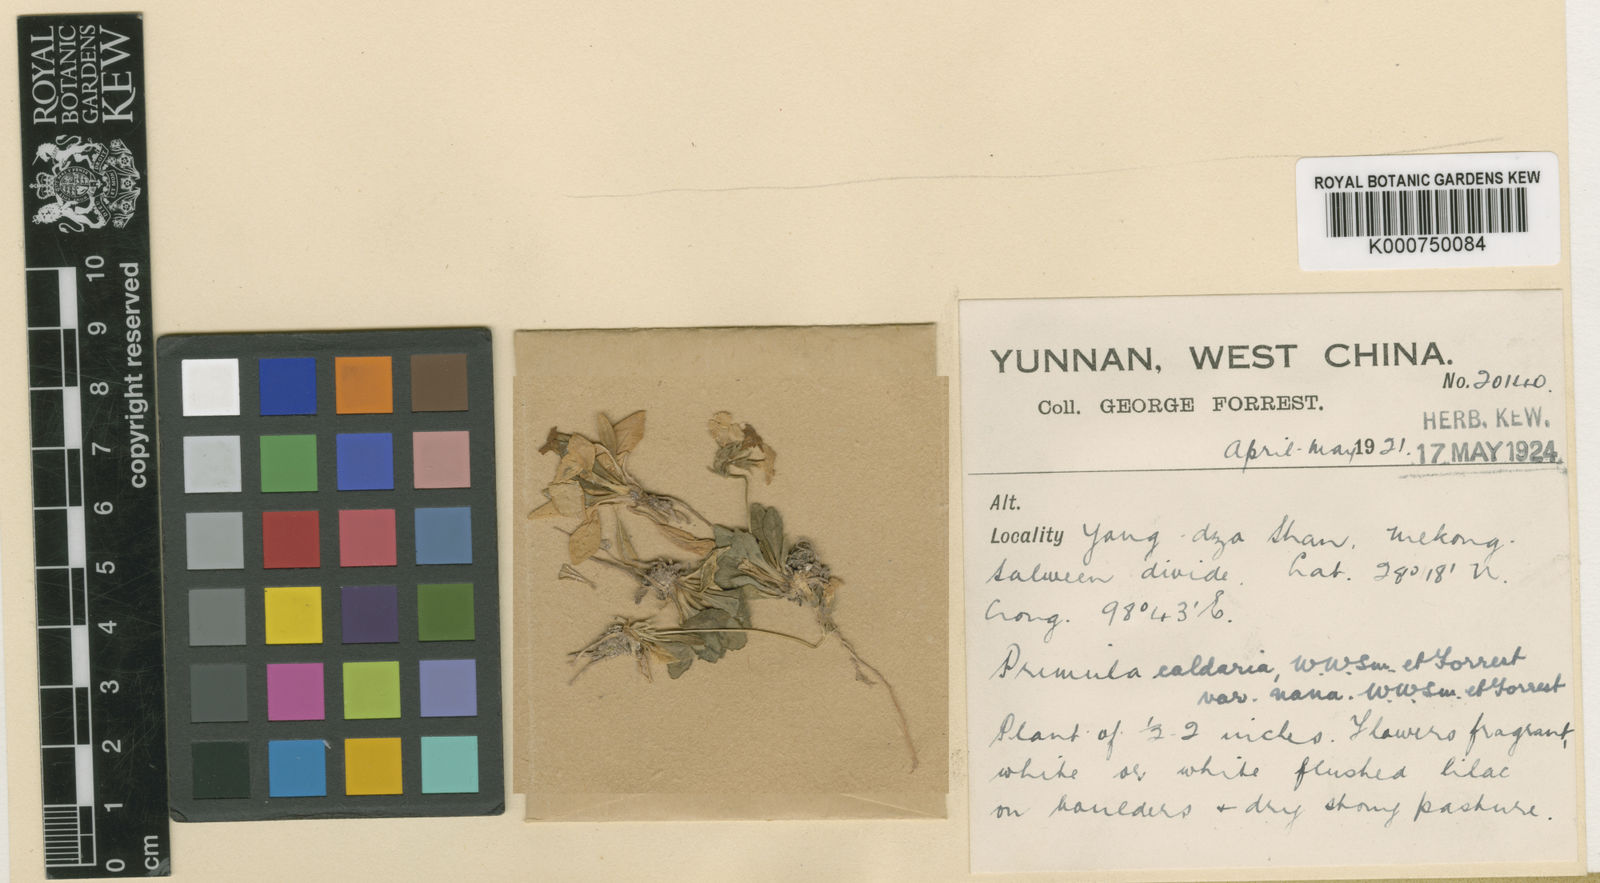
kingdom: Plantae
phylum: Tracheophyta
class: Magnoliopsida
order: Ericales
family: Primulaceae
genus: Primula
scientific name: Primula caldaria
